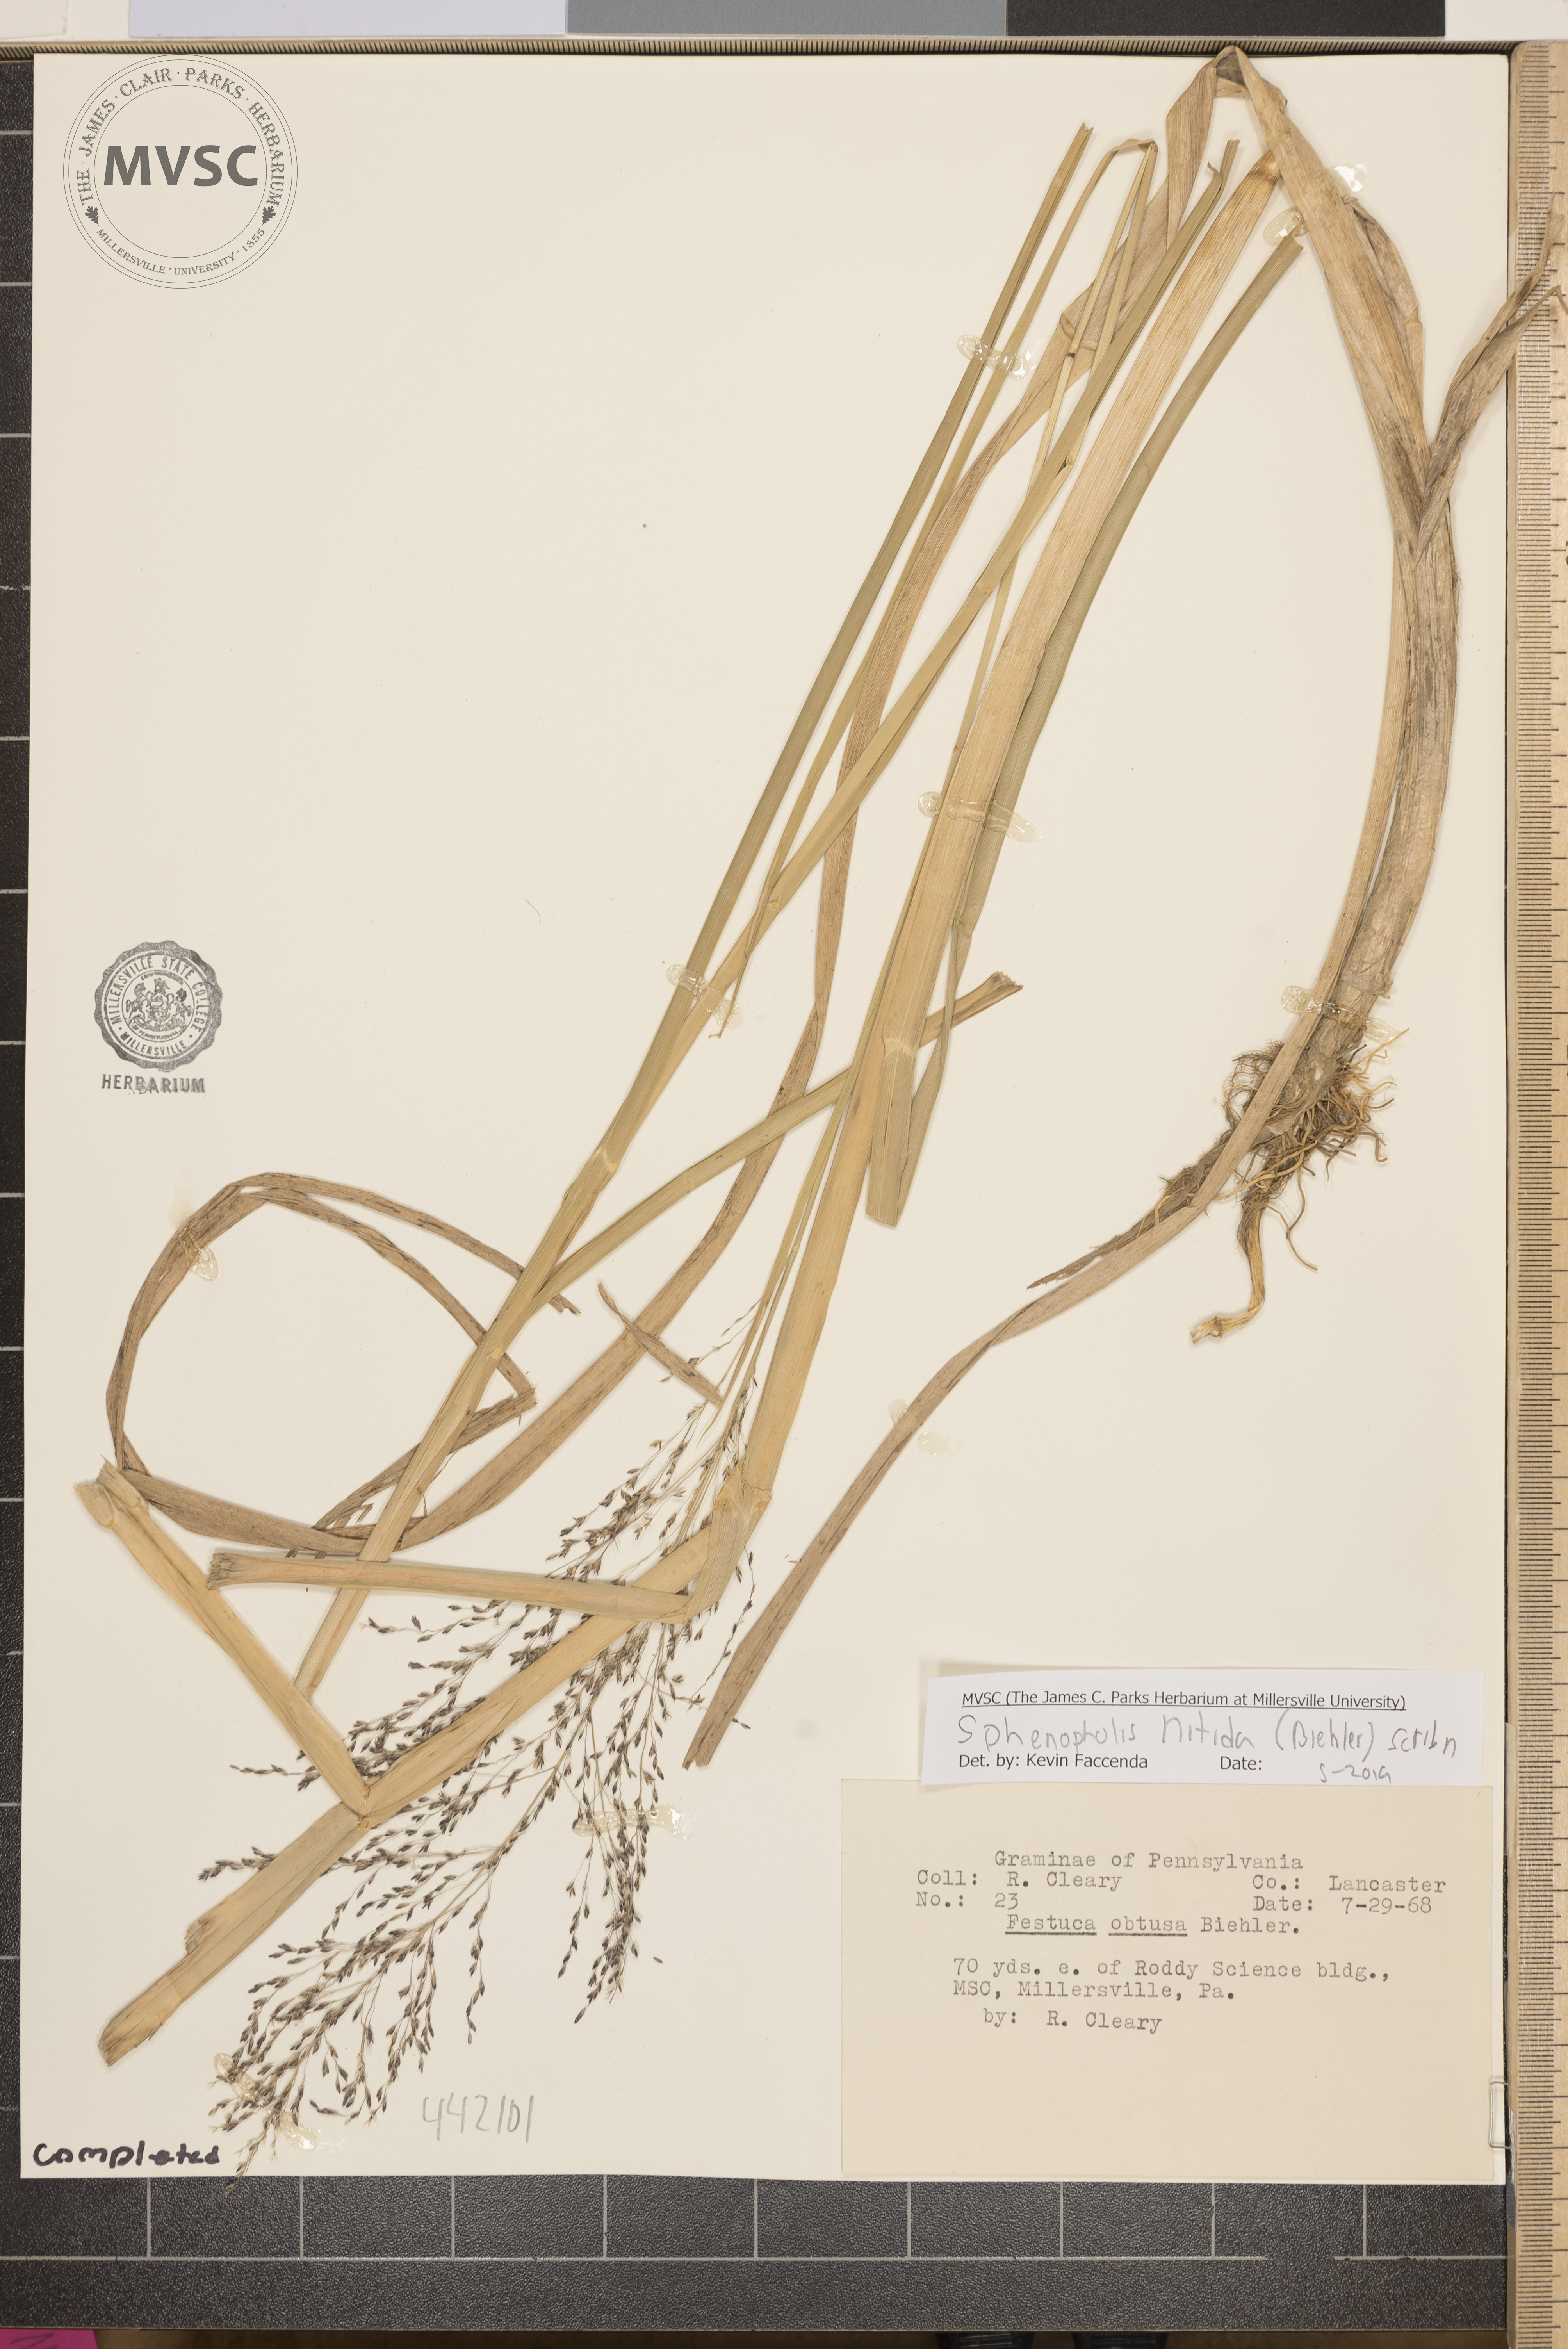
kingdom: Plantae
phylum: Tracheophyta
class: Liliopsida
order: Poales
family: Poaceae
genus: Sphenopholis
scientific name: Sphenopholis nitida
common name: Shiny wedgegrass
